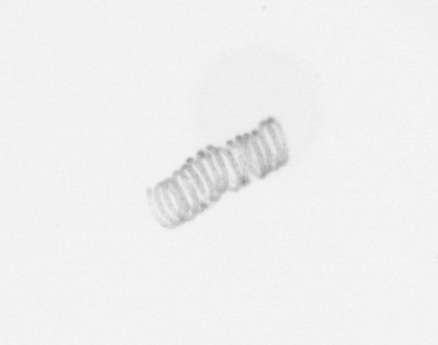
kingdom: Chromista
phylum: Ochrophyta
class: Bacillariophyceae
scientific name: Bacillariophyceae
